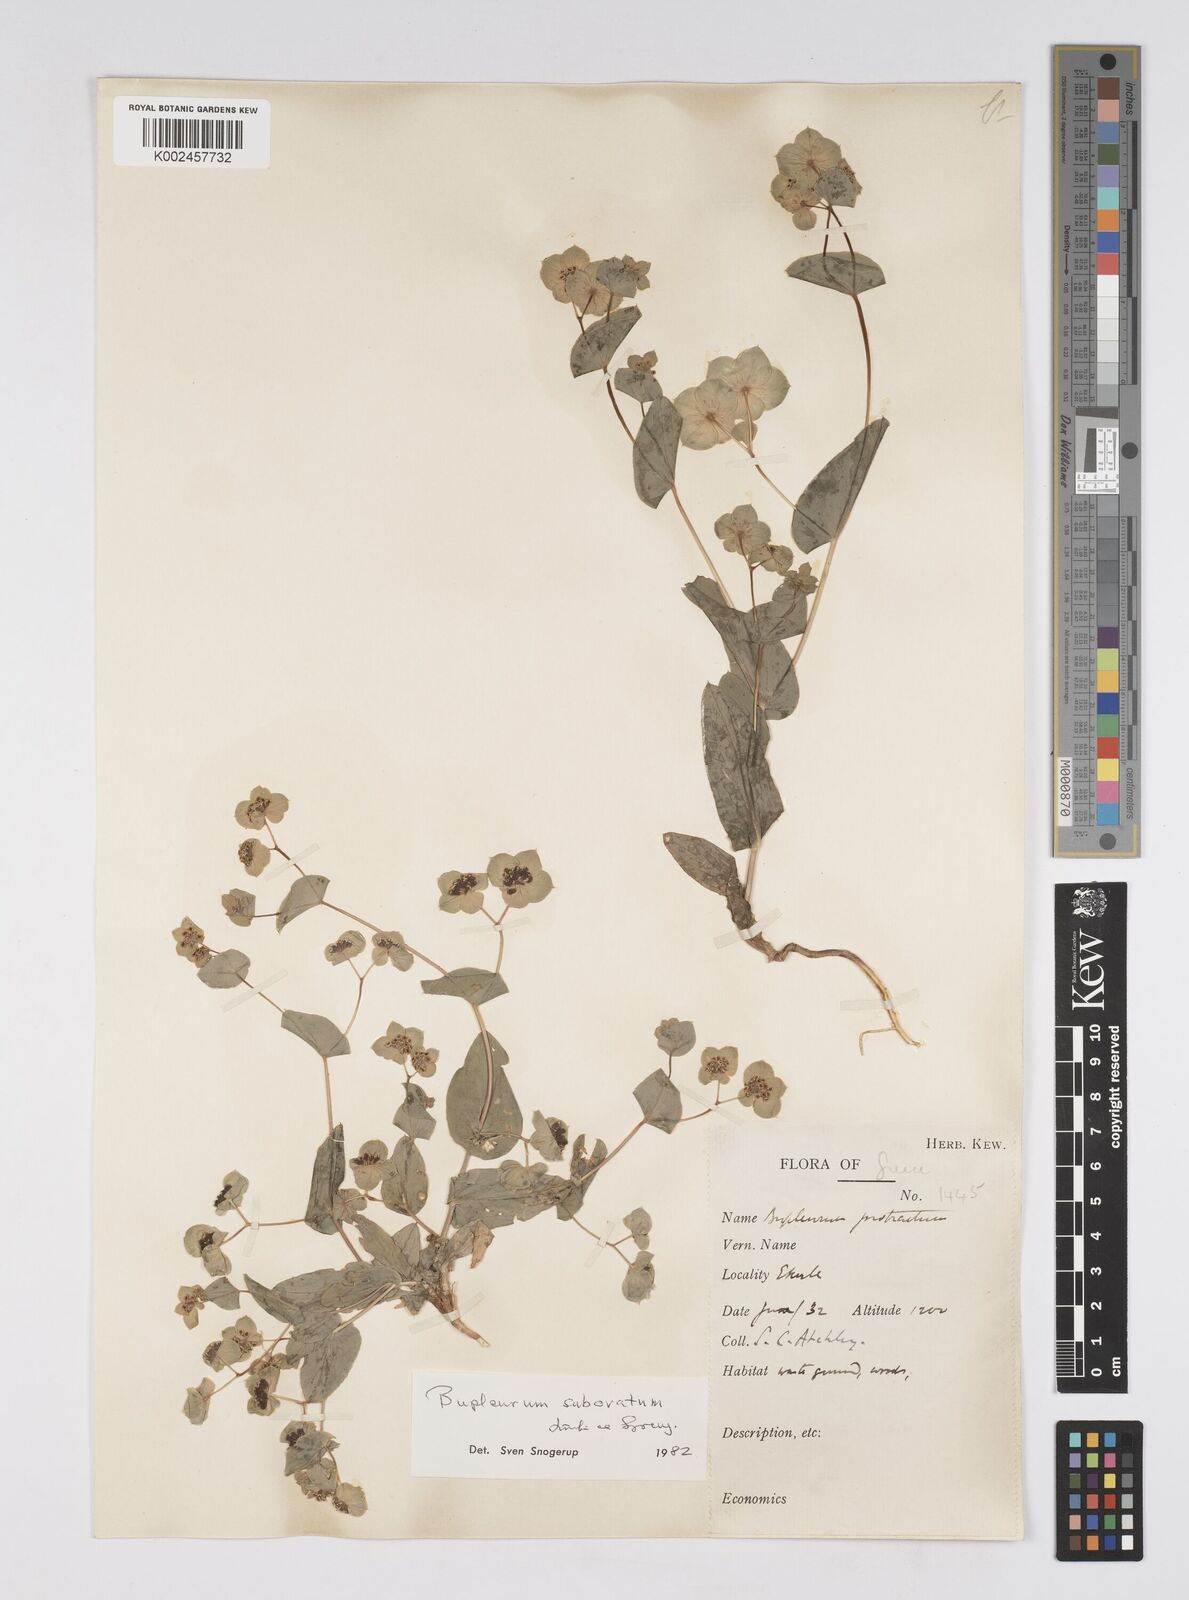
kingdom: Plantae
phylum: Tracheophyta
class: Magnoliopsida
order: Apiales
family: Apiaceae
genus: Bupleurum
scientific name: Bupleurum subovatum
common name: False thorow-wax
